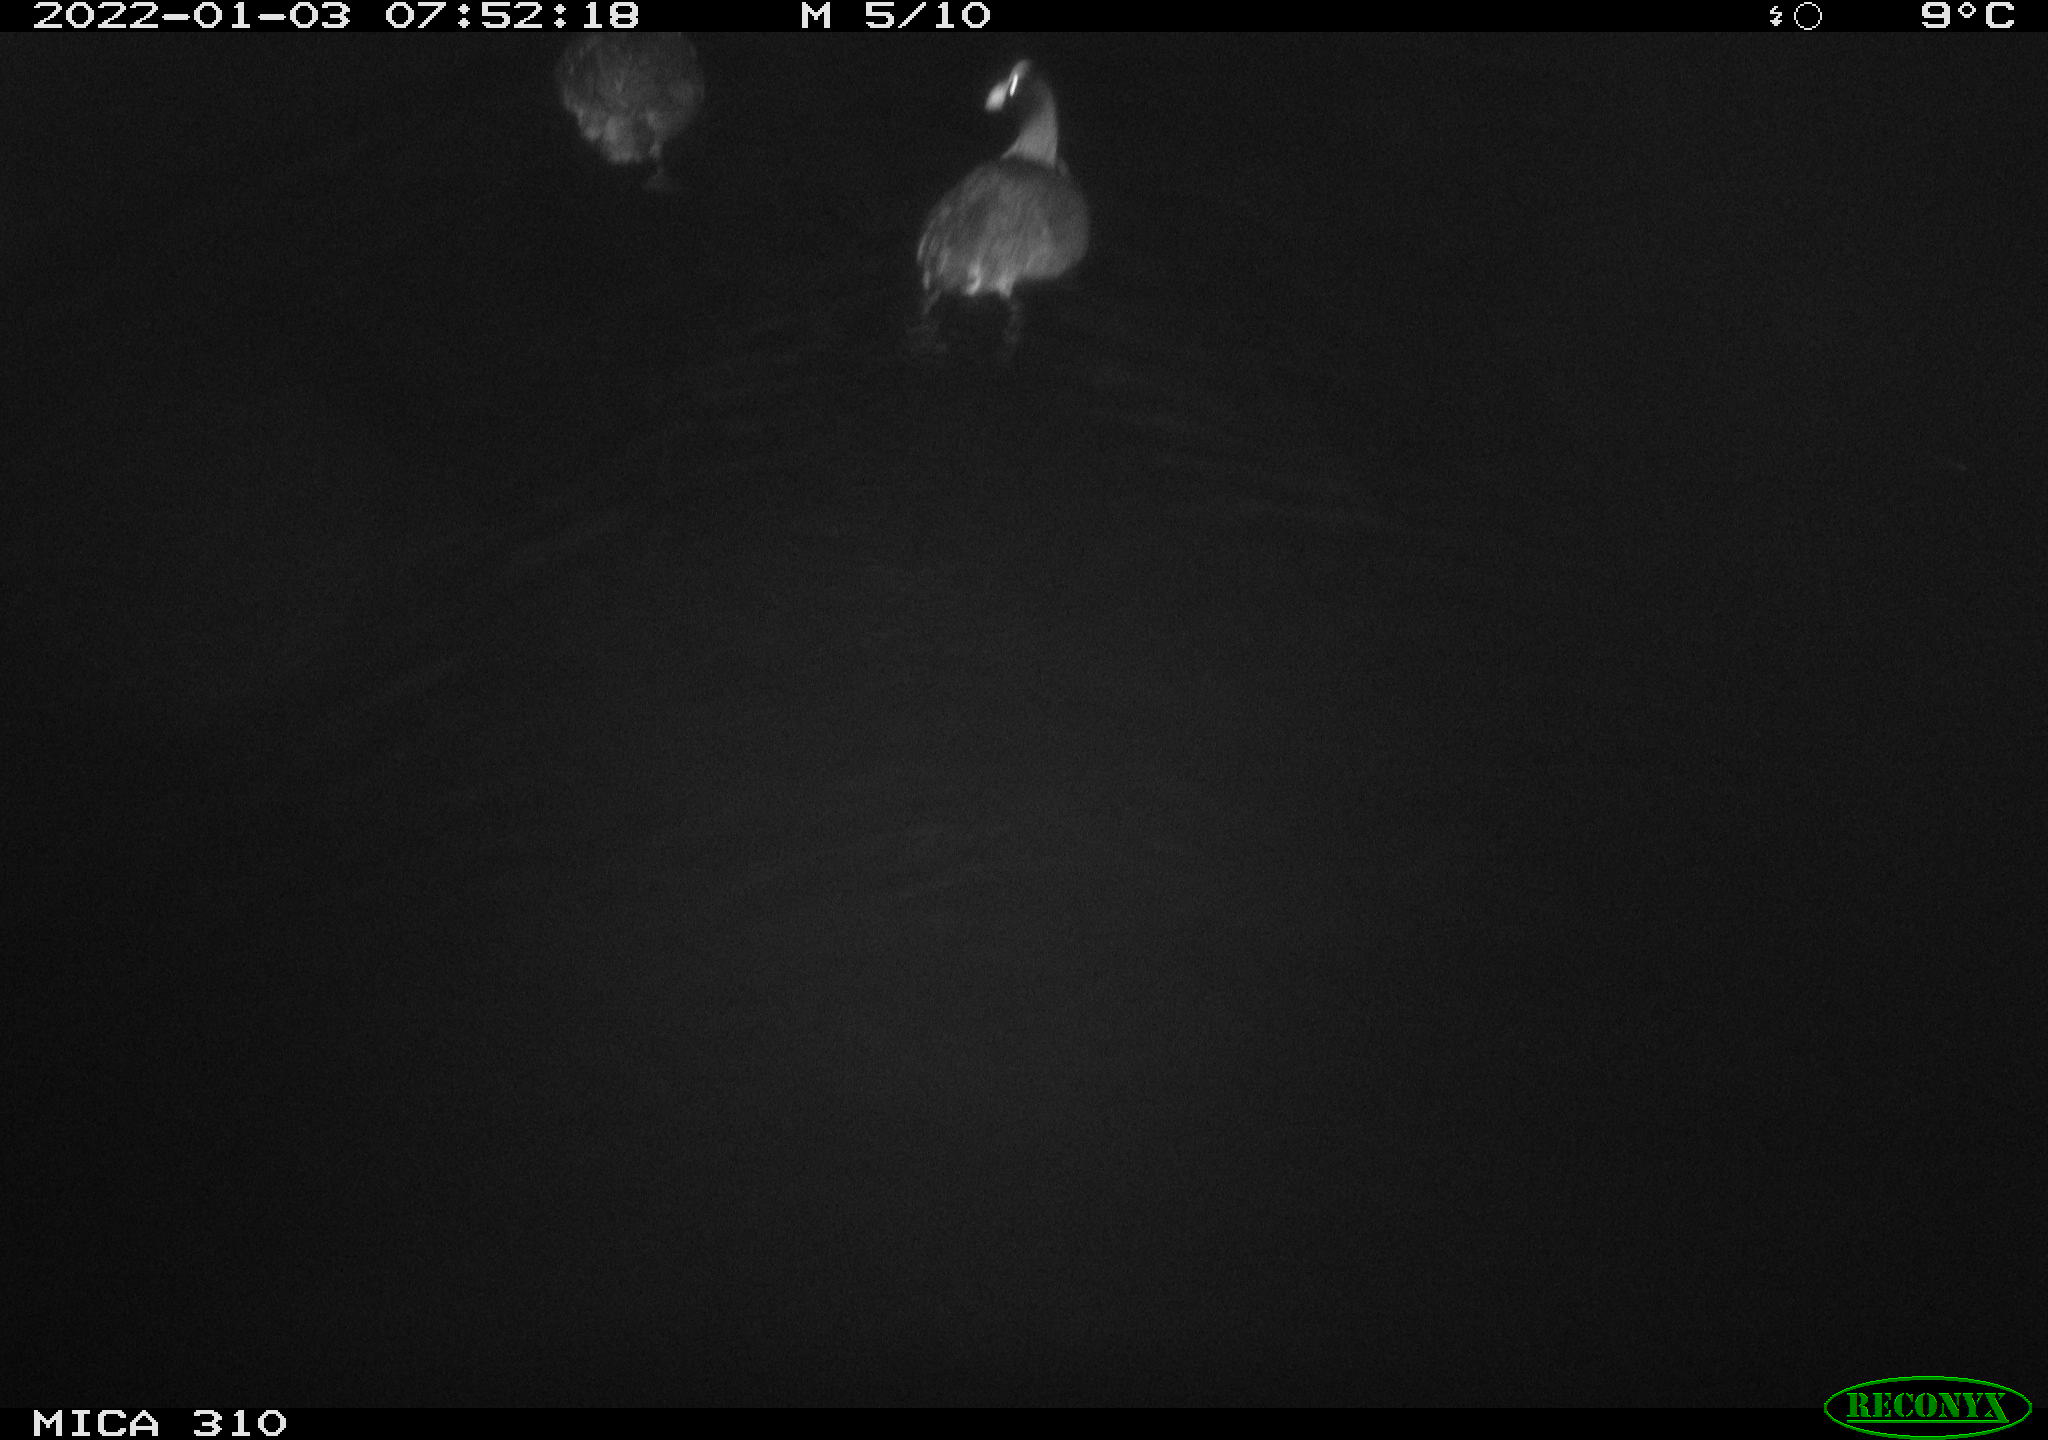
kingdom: Animalia
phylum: Chordata
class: Aves
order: Pelecaniformes
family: Ardeidae
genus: Ardea
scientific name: Ardea
